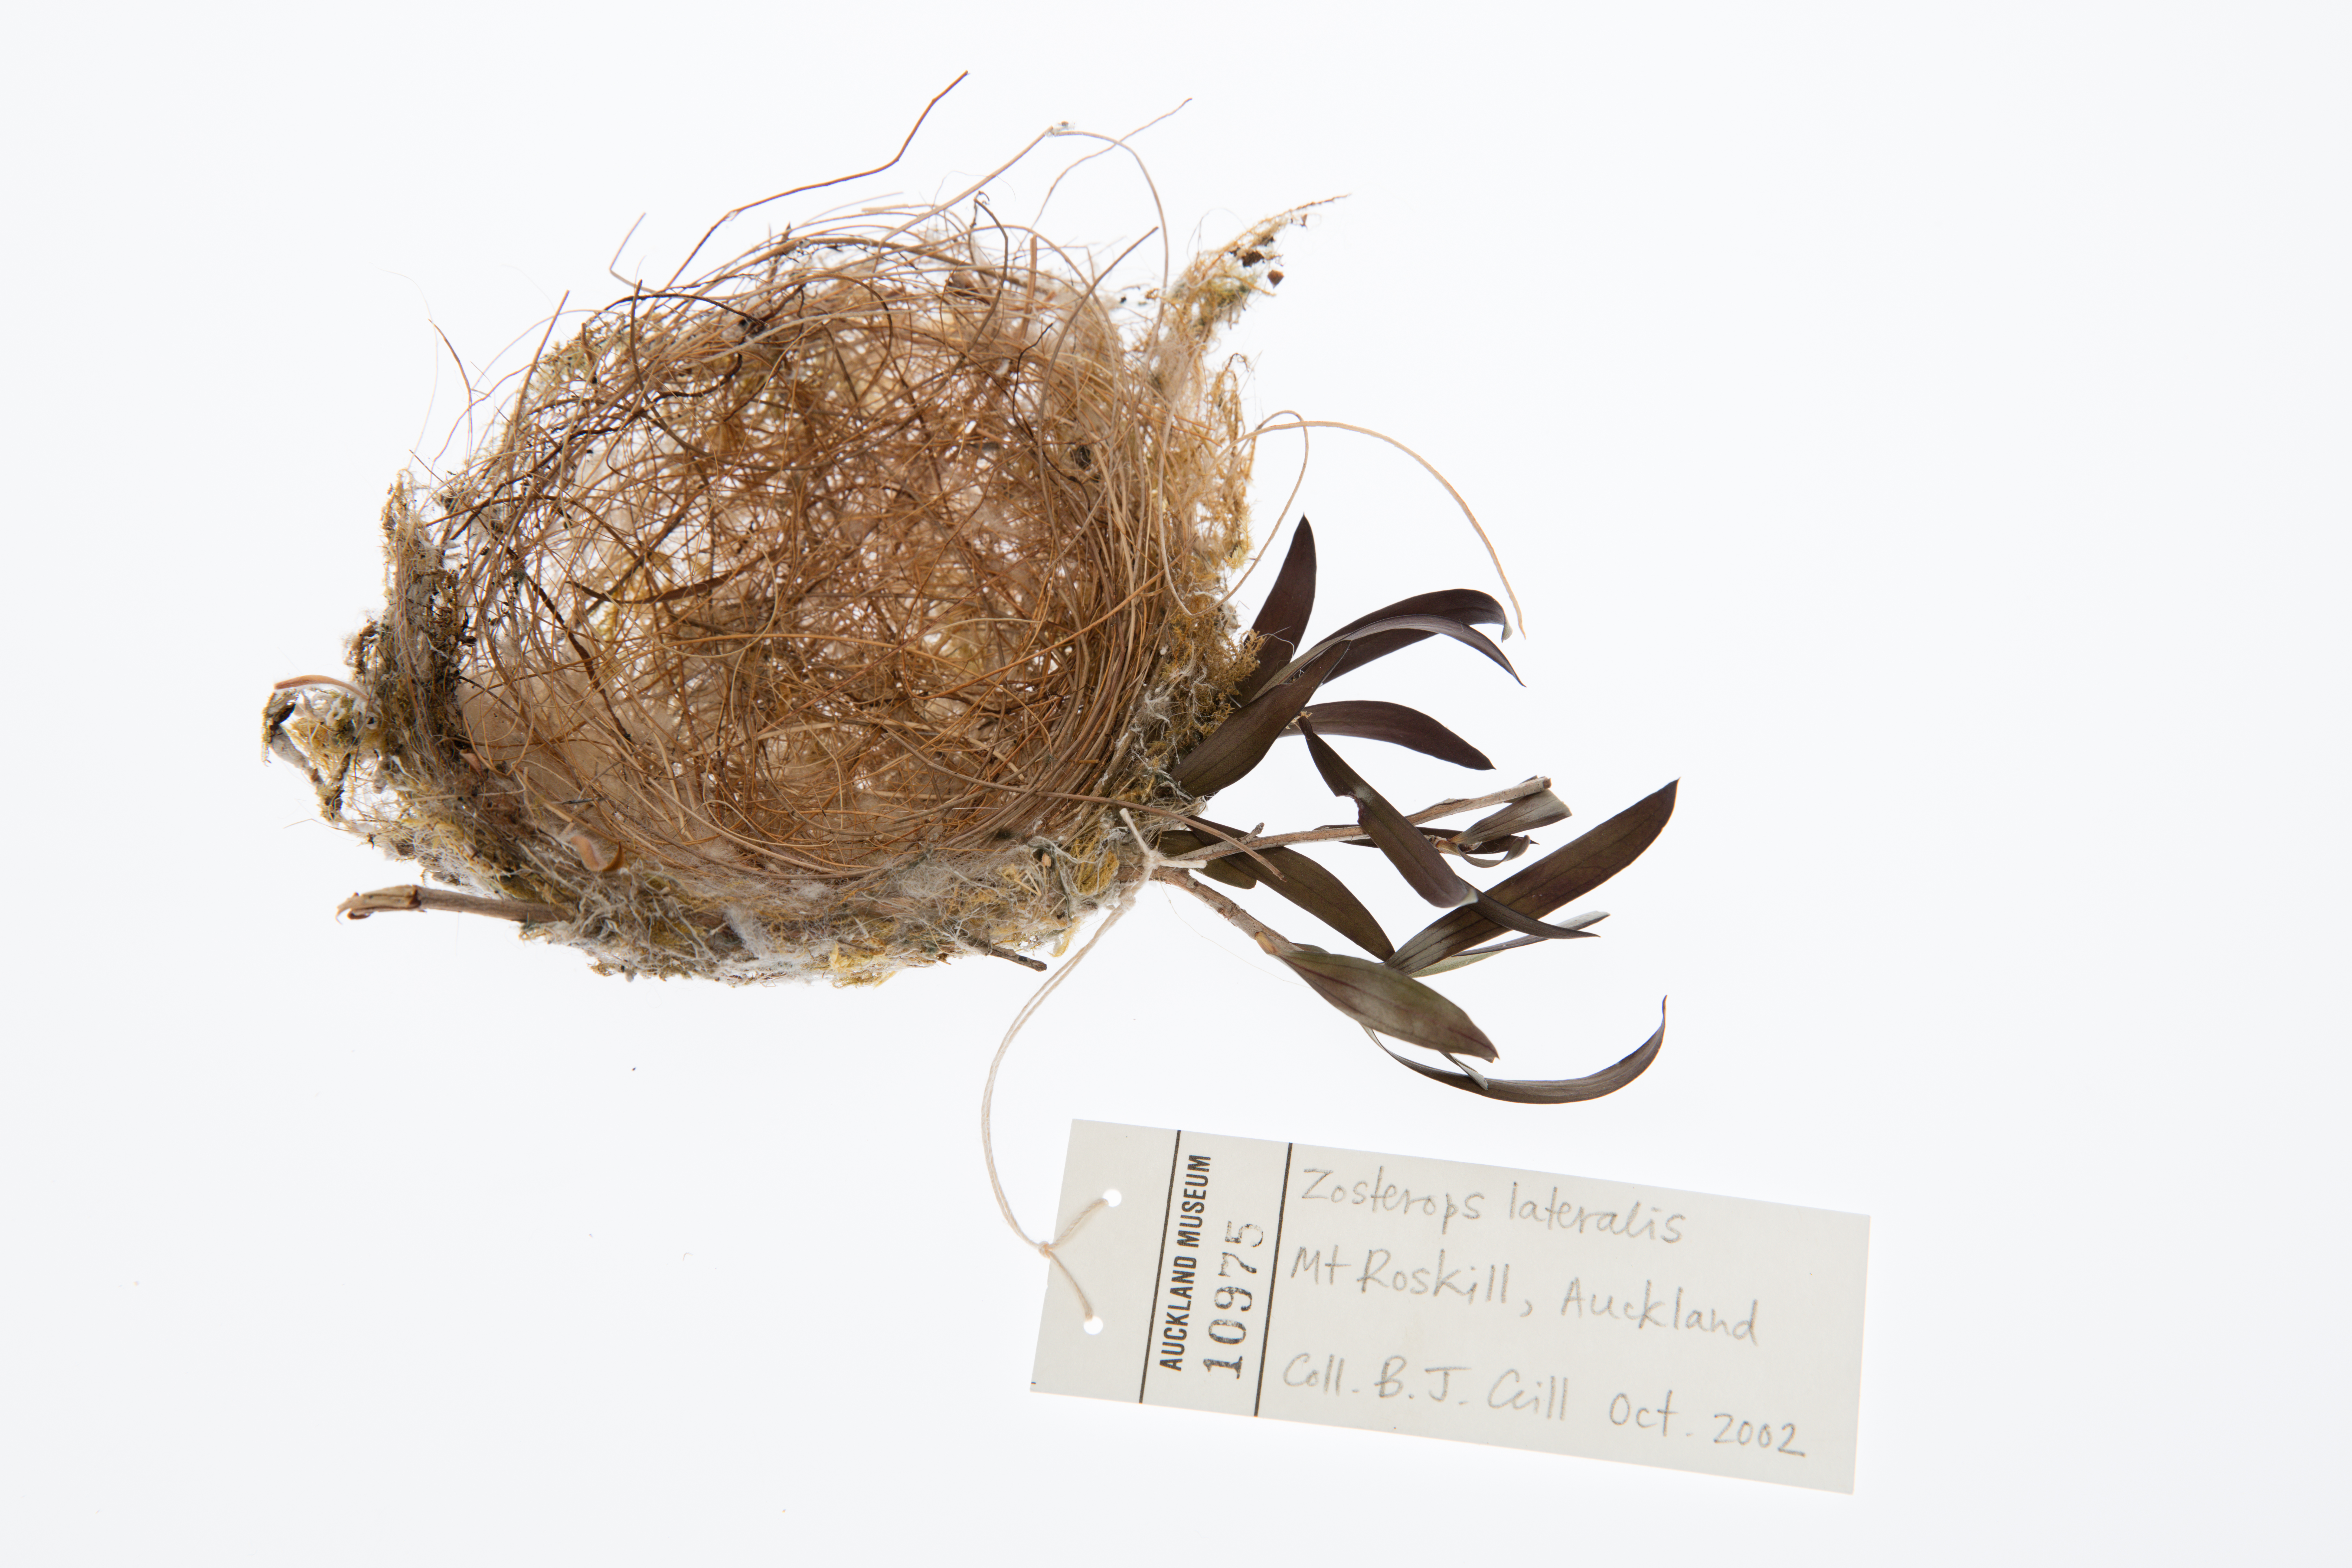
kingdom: Animalia
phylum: Chordata
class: Aves
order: Passeriformes
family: Zosteropidae
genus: Zosterops
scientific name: Zosterops lateralis
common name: Silvereye
